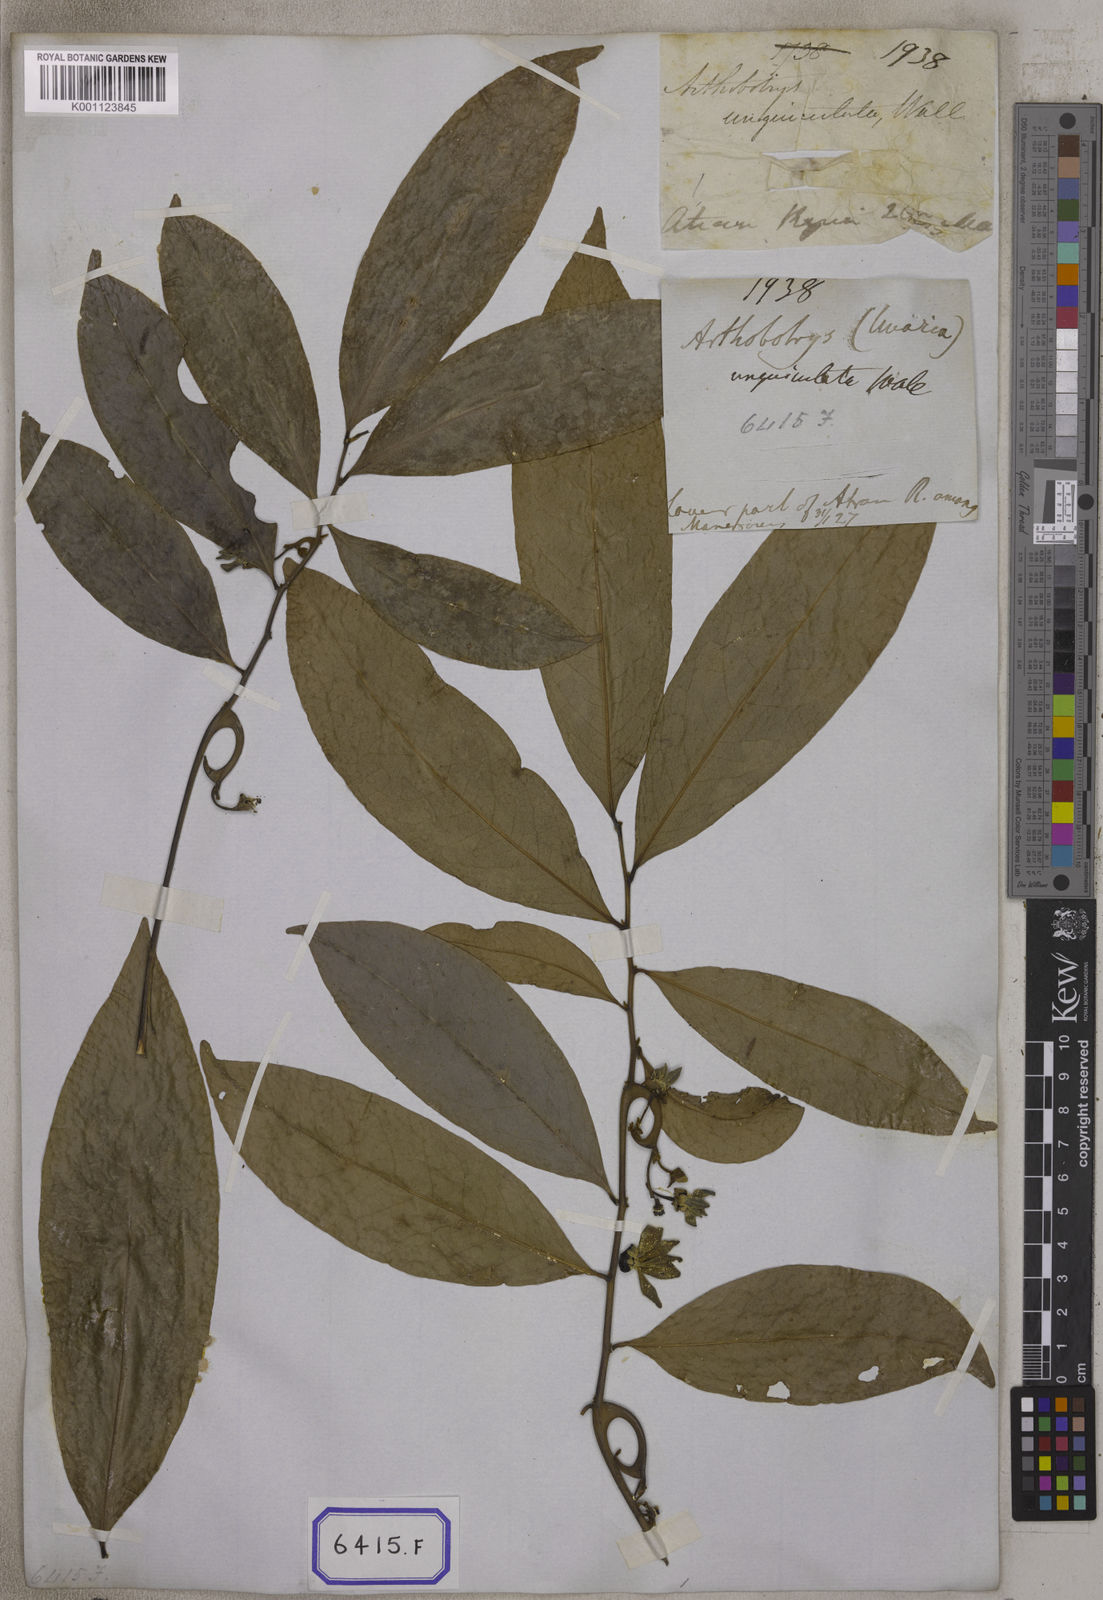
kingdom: Plantae
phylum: Tracheophyta
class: Magnoliopsida
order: Magnoliales
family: Annonaceae
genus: Artabotrys
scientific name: Artabotrys hexapetalus
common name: Climbing ilang-ilang
